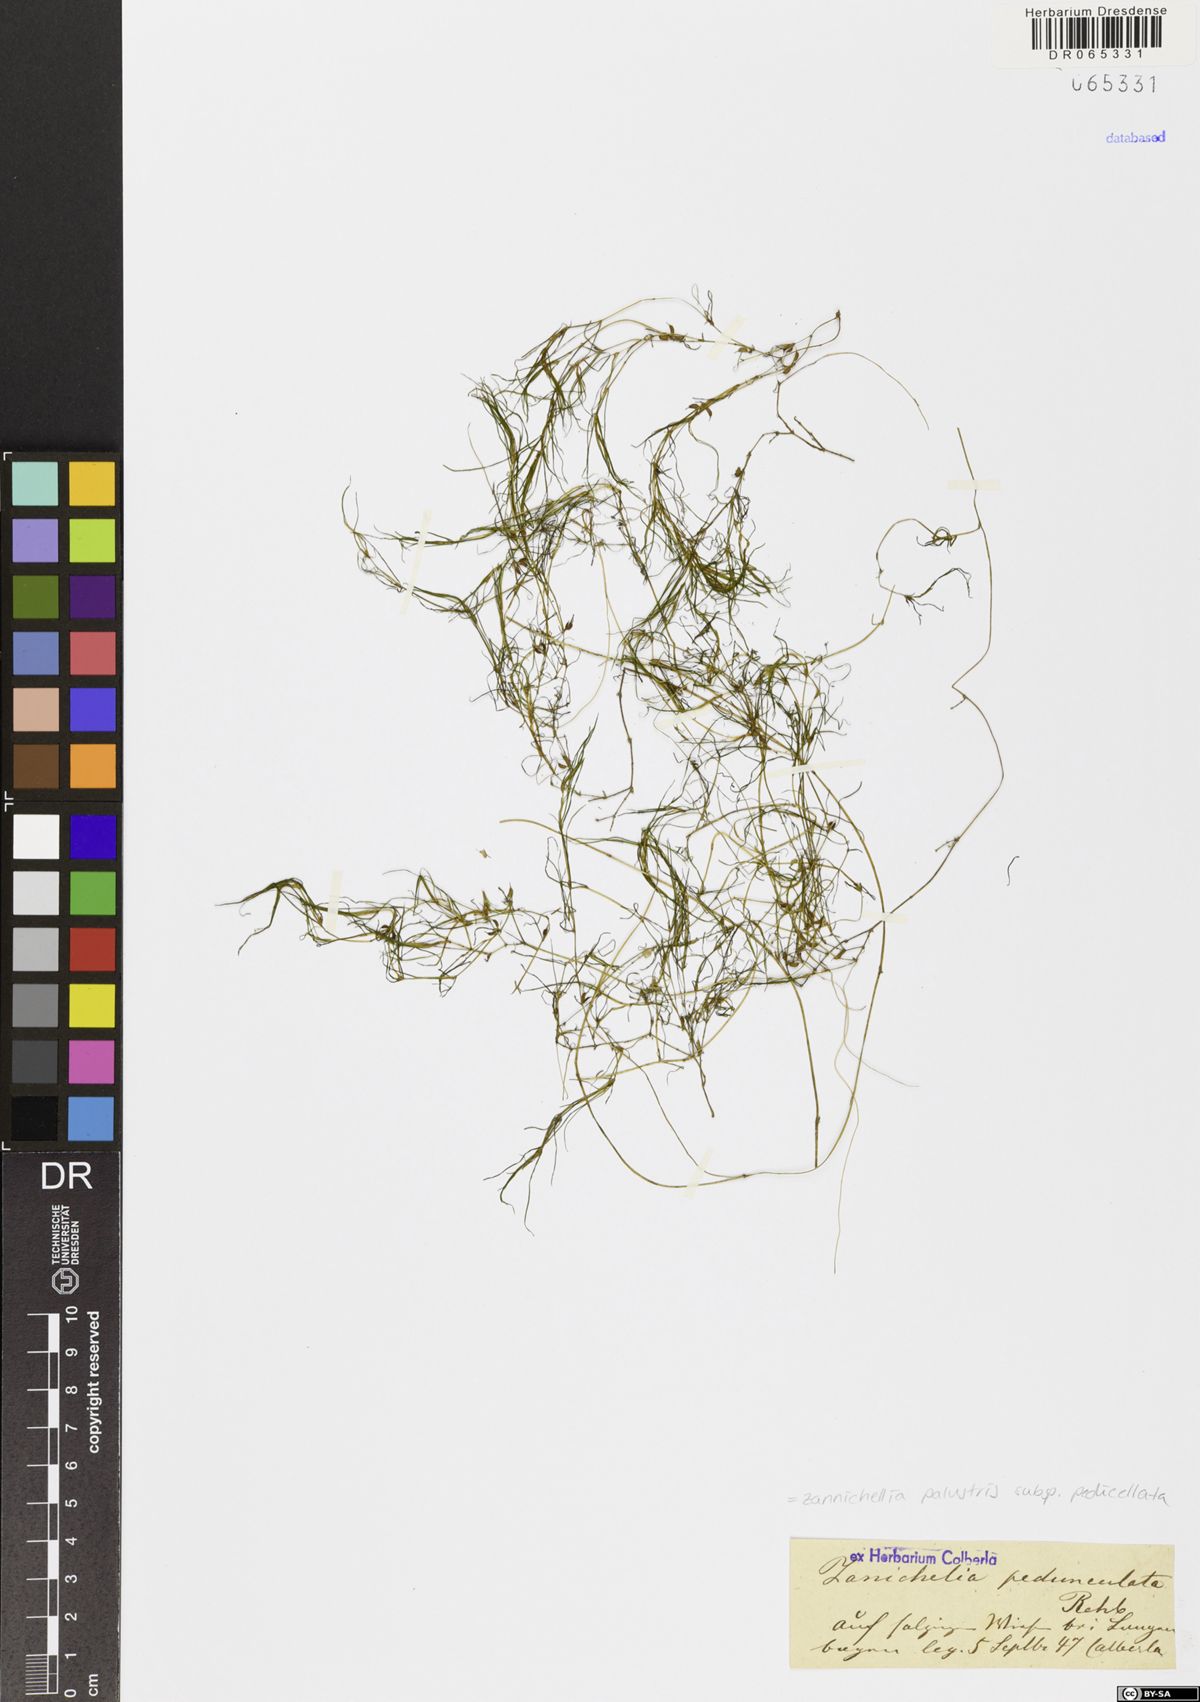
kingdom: Plantae
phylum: Tracheophyta
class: Liliopsida
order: Alismatales
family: Potamogetonaceae
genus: Zannichellia
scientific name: Zannichellia palustris
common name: Horned pondweed
